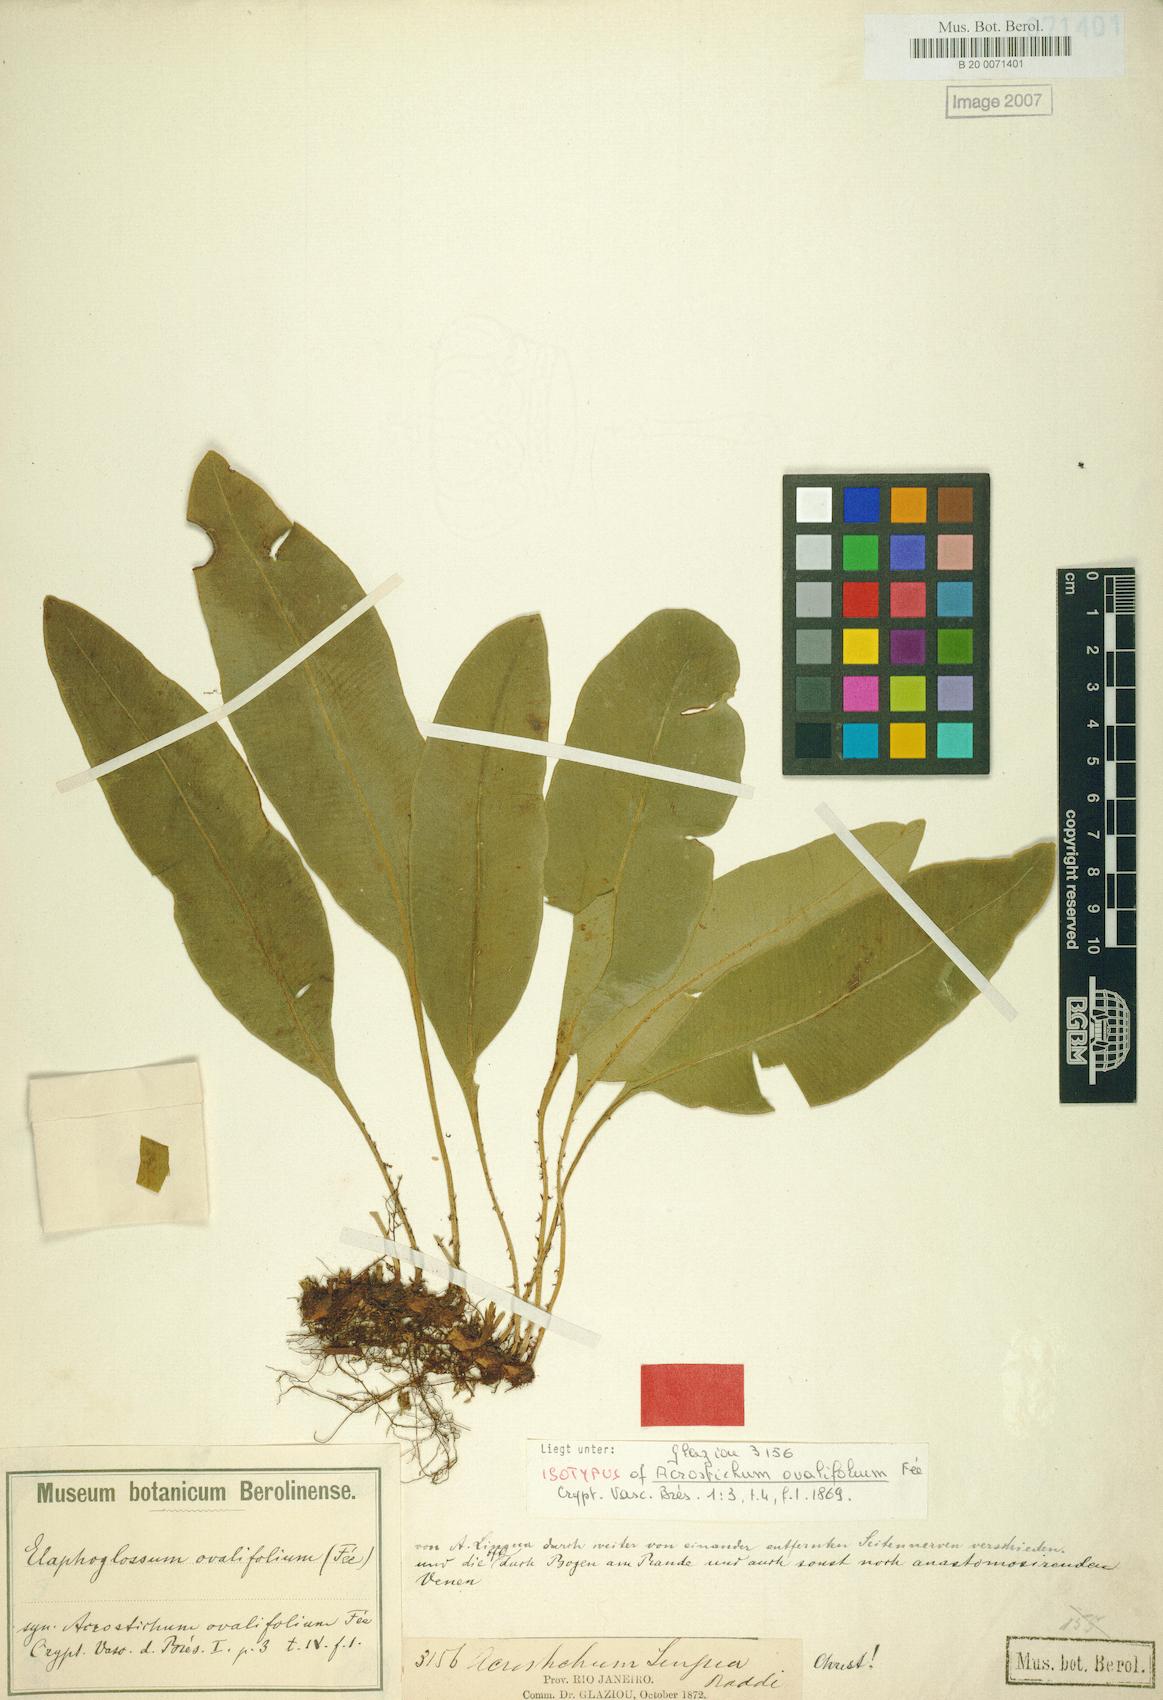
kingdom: Plantae
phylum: Tracheophyta
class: Polypodiopsida
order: Polypodiales
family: Pteridaceae
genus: Acrostichum
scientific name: Acrostichum ovalifolium
